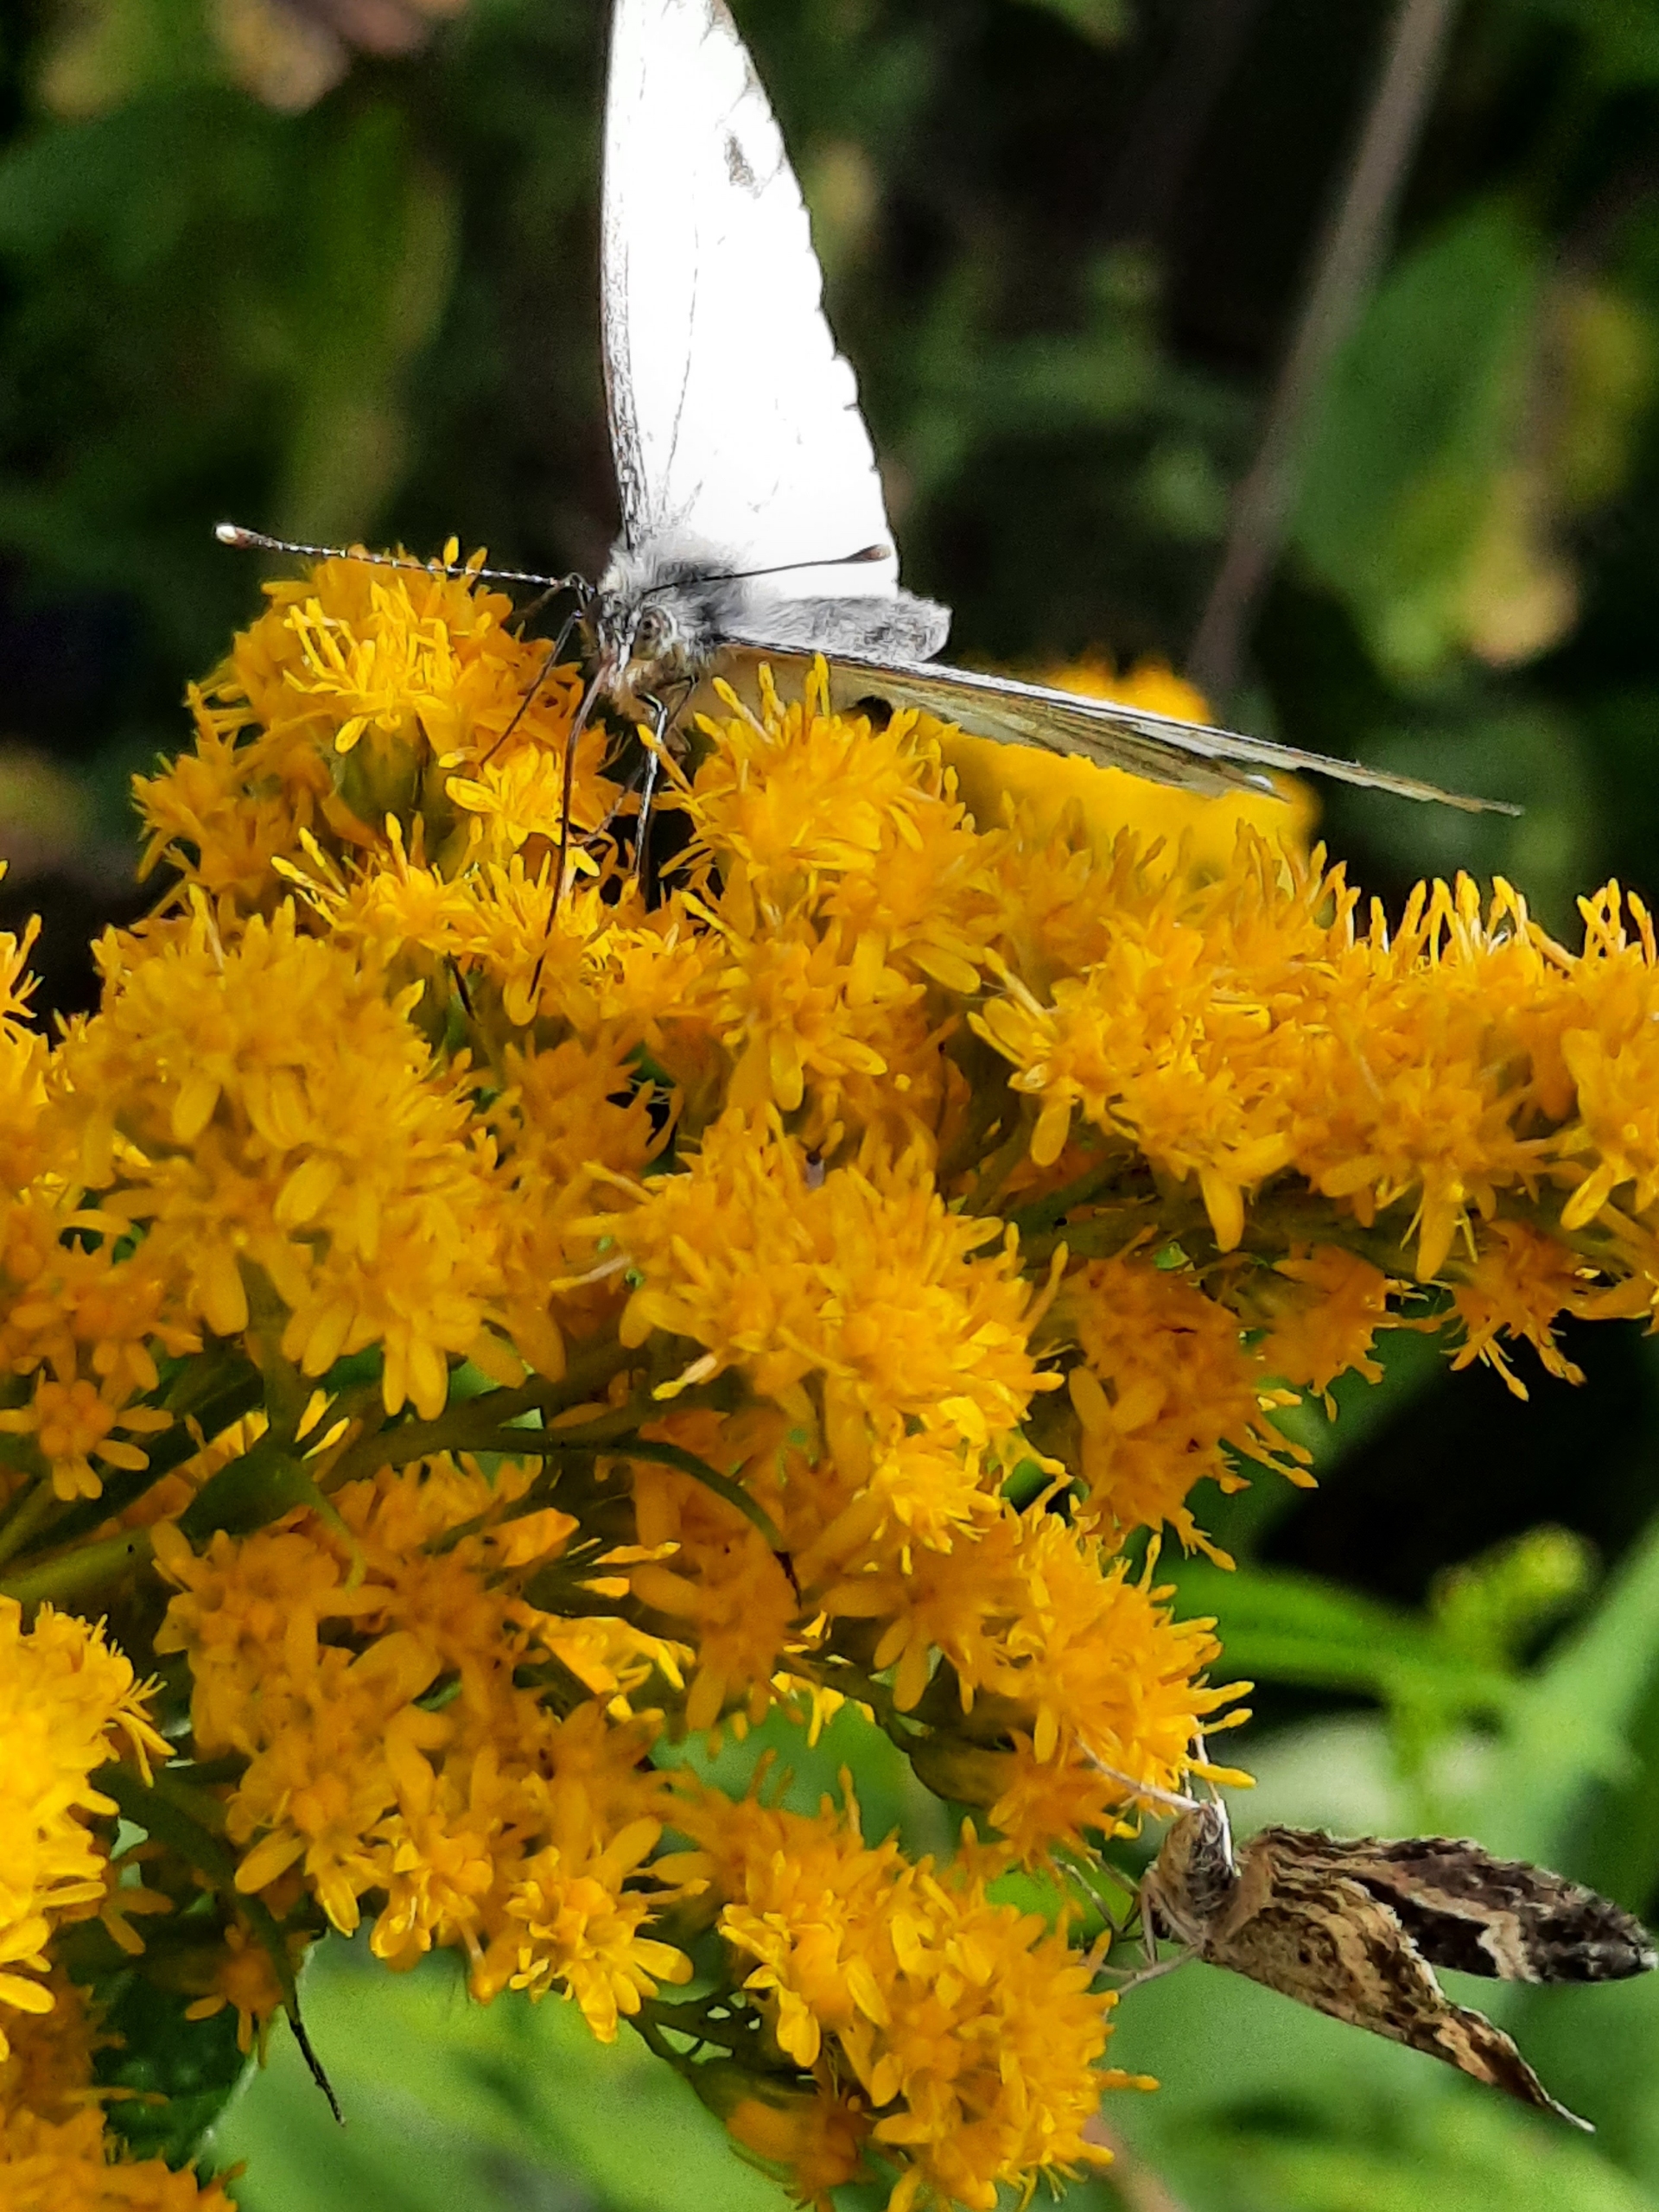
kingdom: Animalia
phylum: Arthropoda
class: Insecta
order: Lepidoptera
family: Pieridae
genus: Pieris
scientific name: Pieris napi
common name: Grønåret kålsommerfugl
